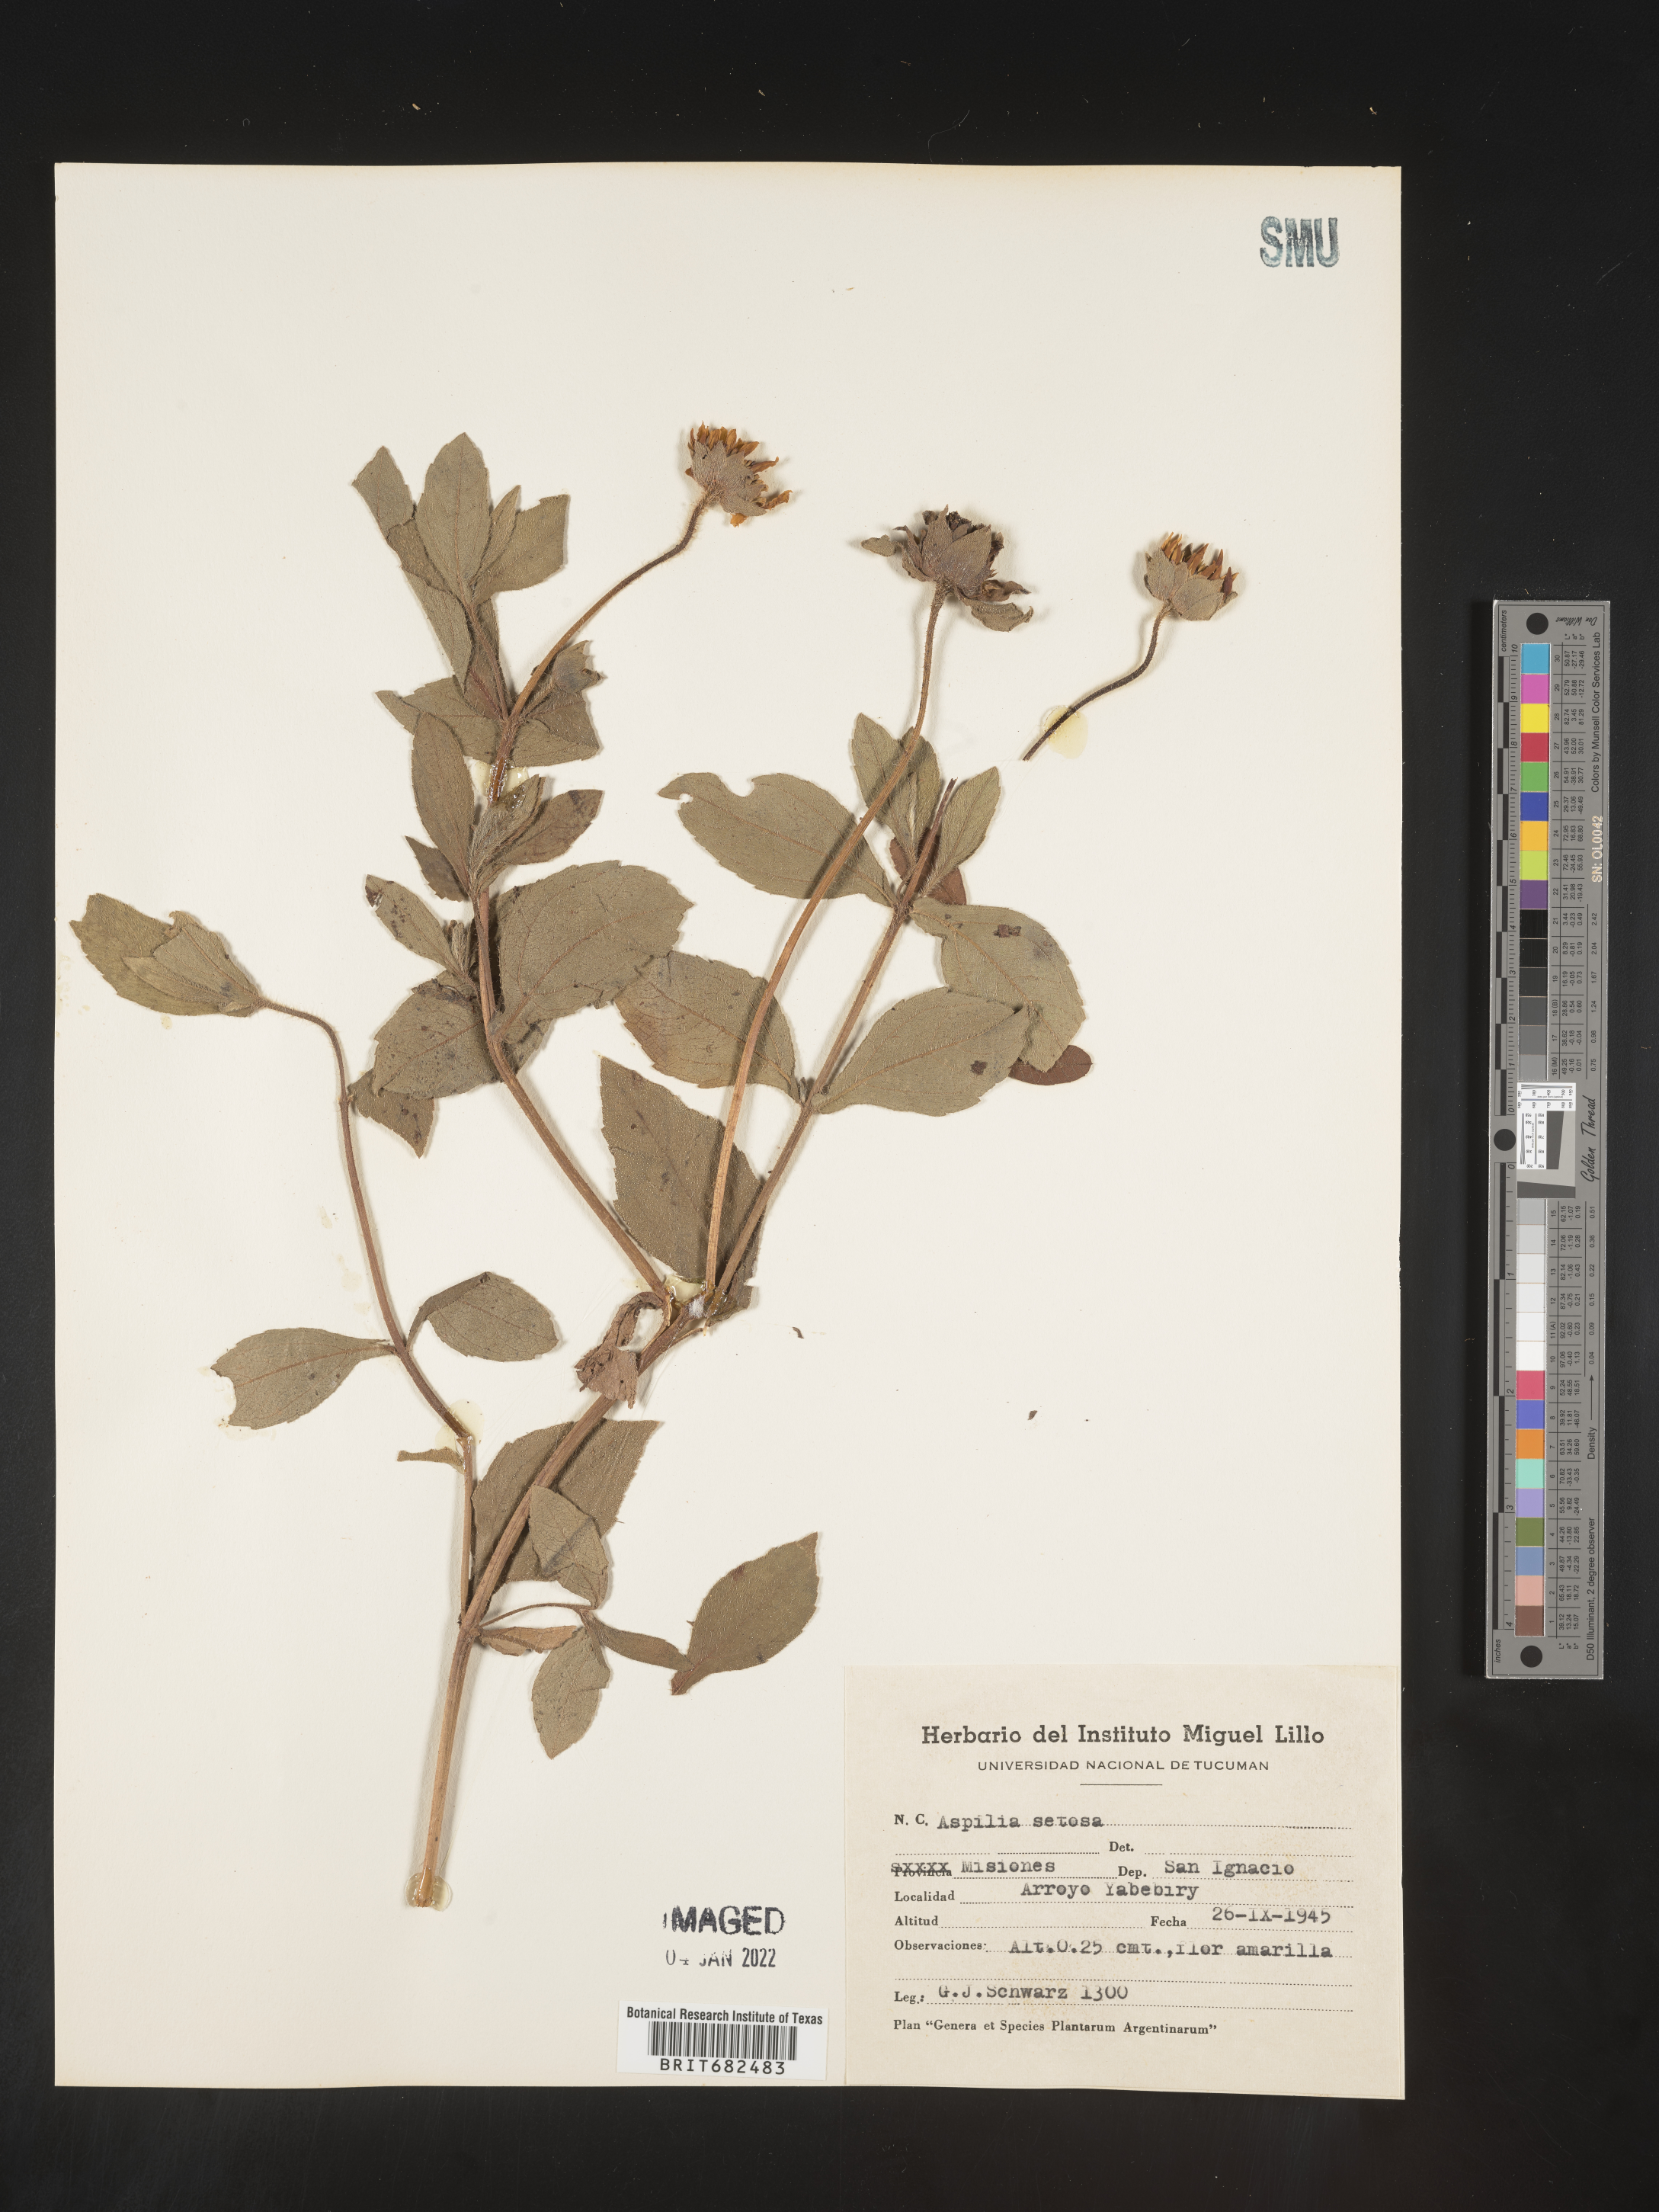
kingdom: Plantae
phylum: Tracheophyta
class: Magnoliopsida
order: Asterales
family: Asteraceae
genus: Aspilia
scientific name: Aspilia
